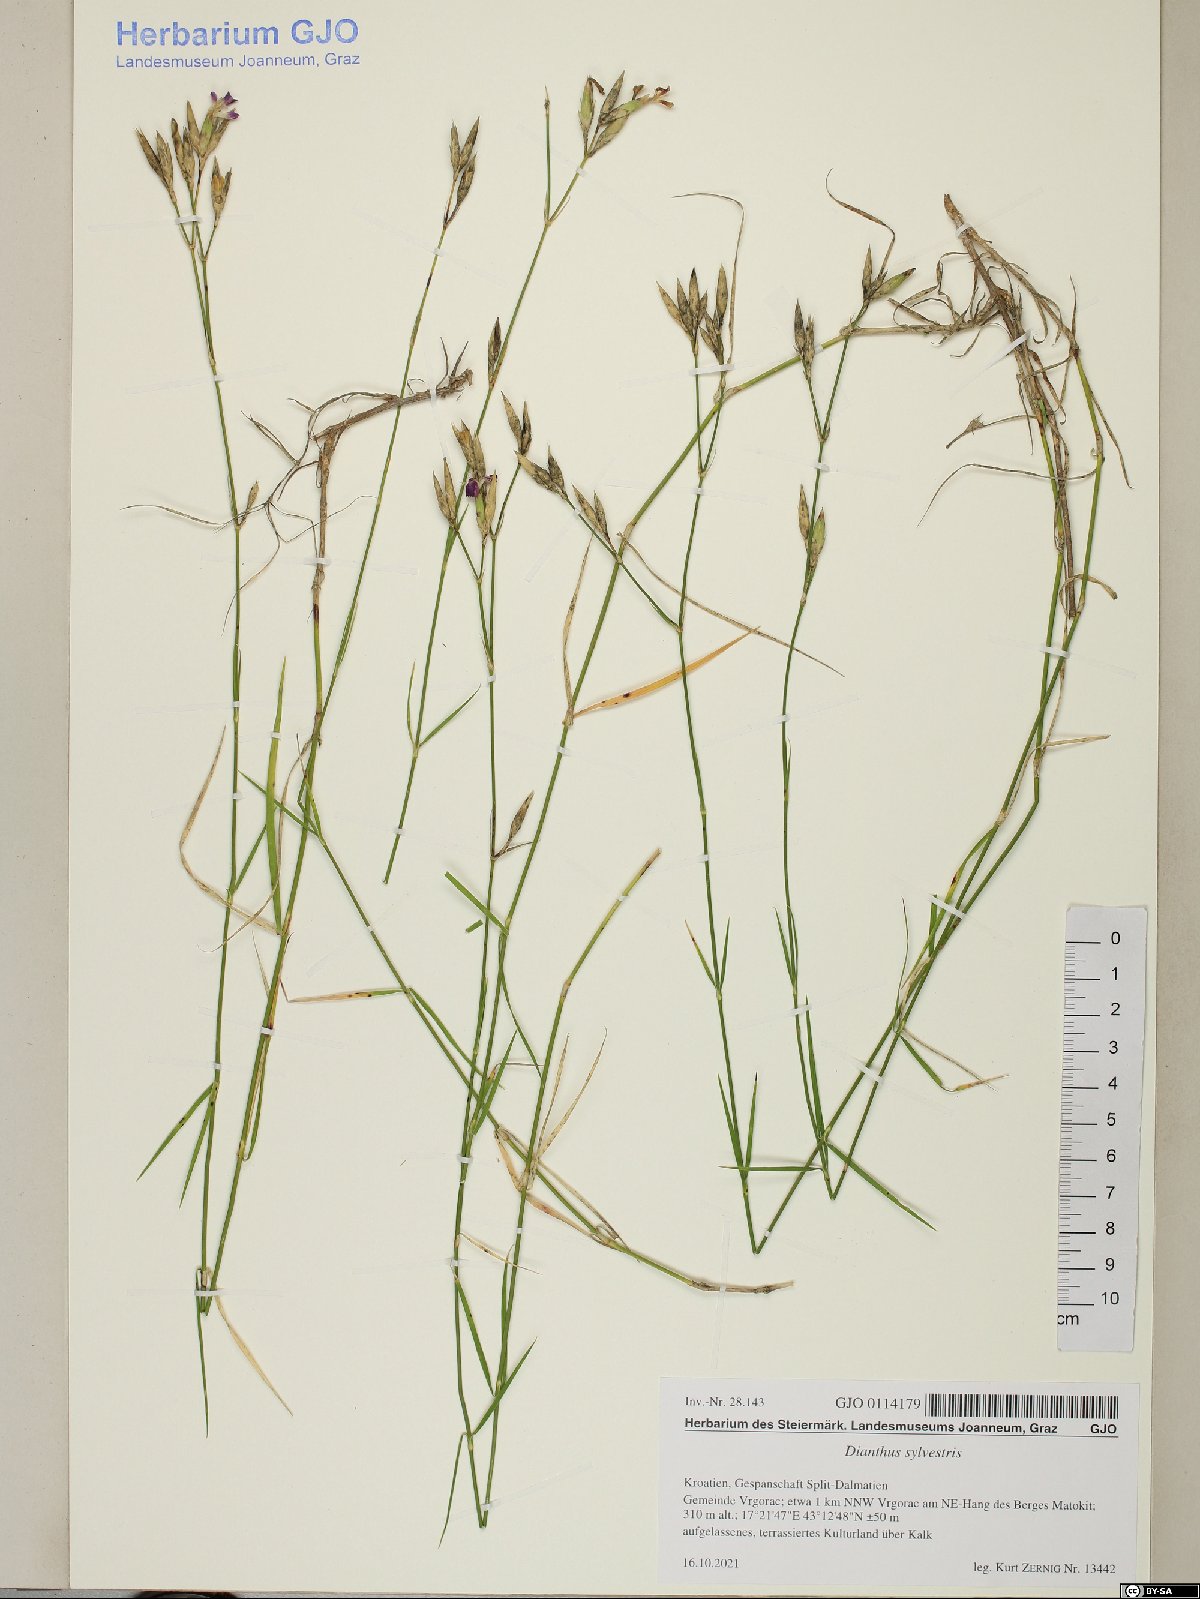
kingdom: Plantae
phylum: Tracheophyta
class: Magnoliopsida
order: Caryophyllales
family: Caryophyllaceae
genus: Dianthus
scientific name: Dianthus sylvestris
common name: Wood pink
